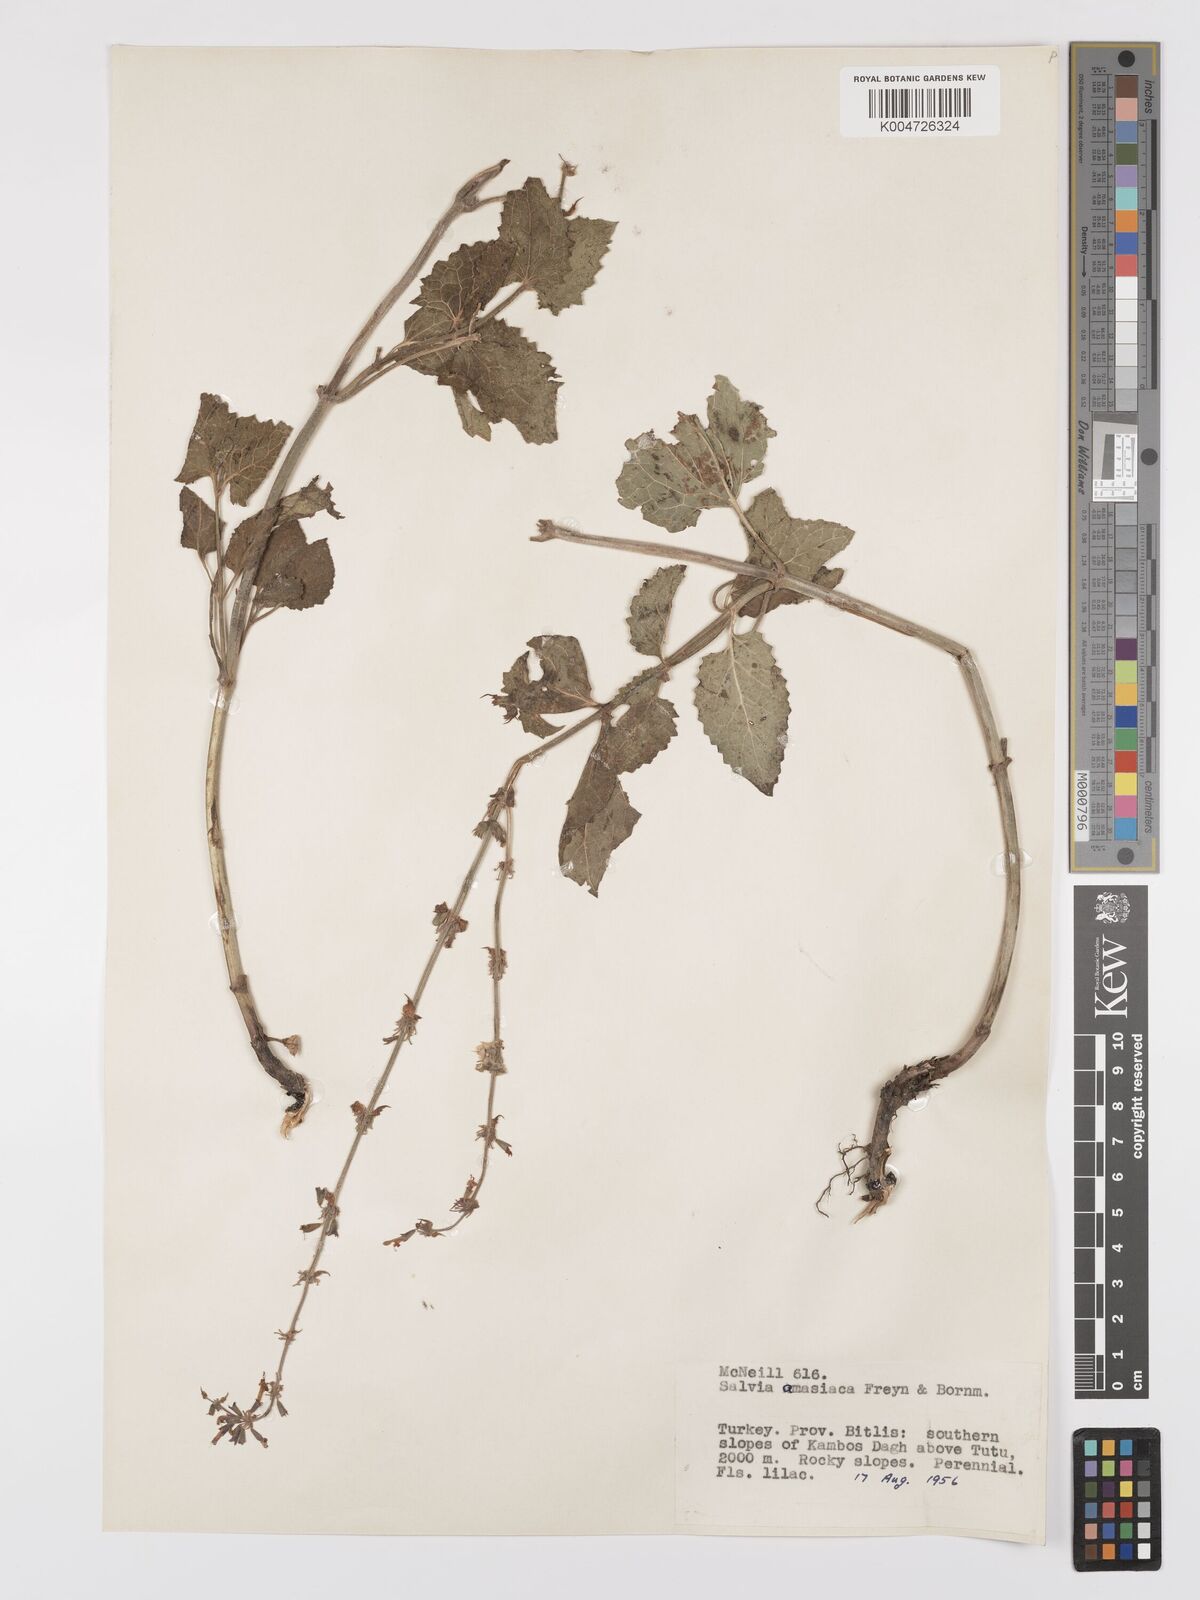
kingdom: Plantae
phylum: Tracheophyta
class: Magnoliopsida
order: Lamiales
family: Lamiaceae
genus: Salvia
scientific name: Salvia verticillata
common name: Whorled clary
